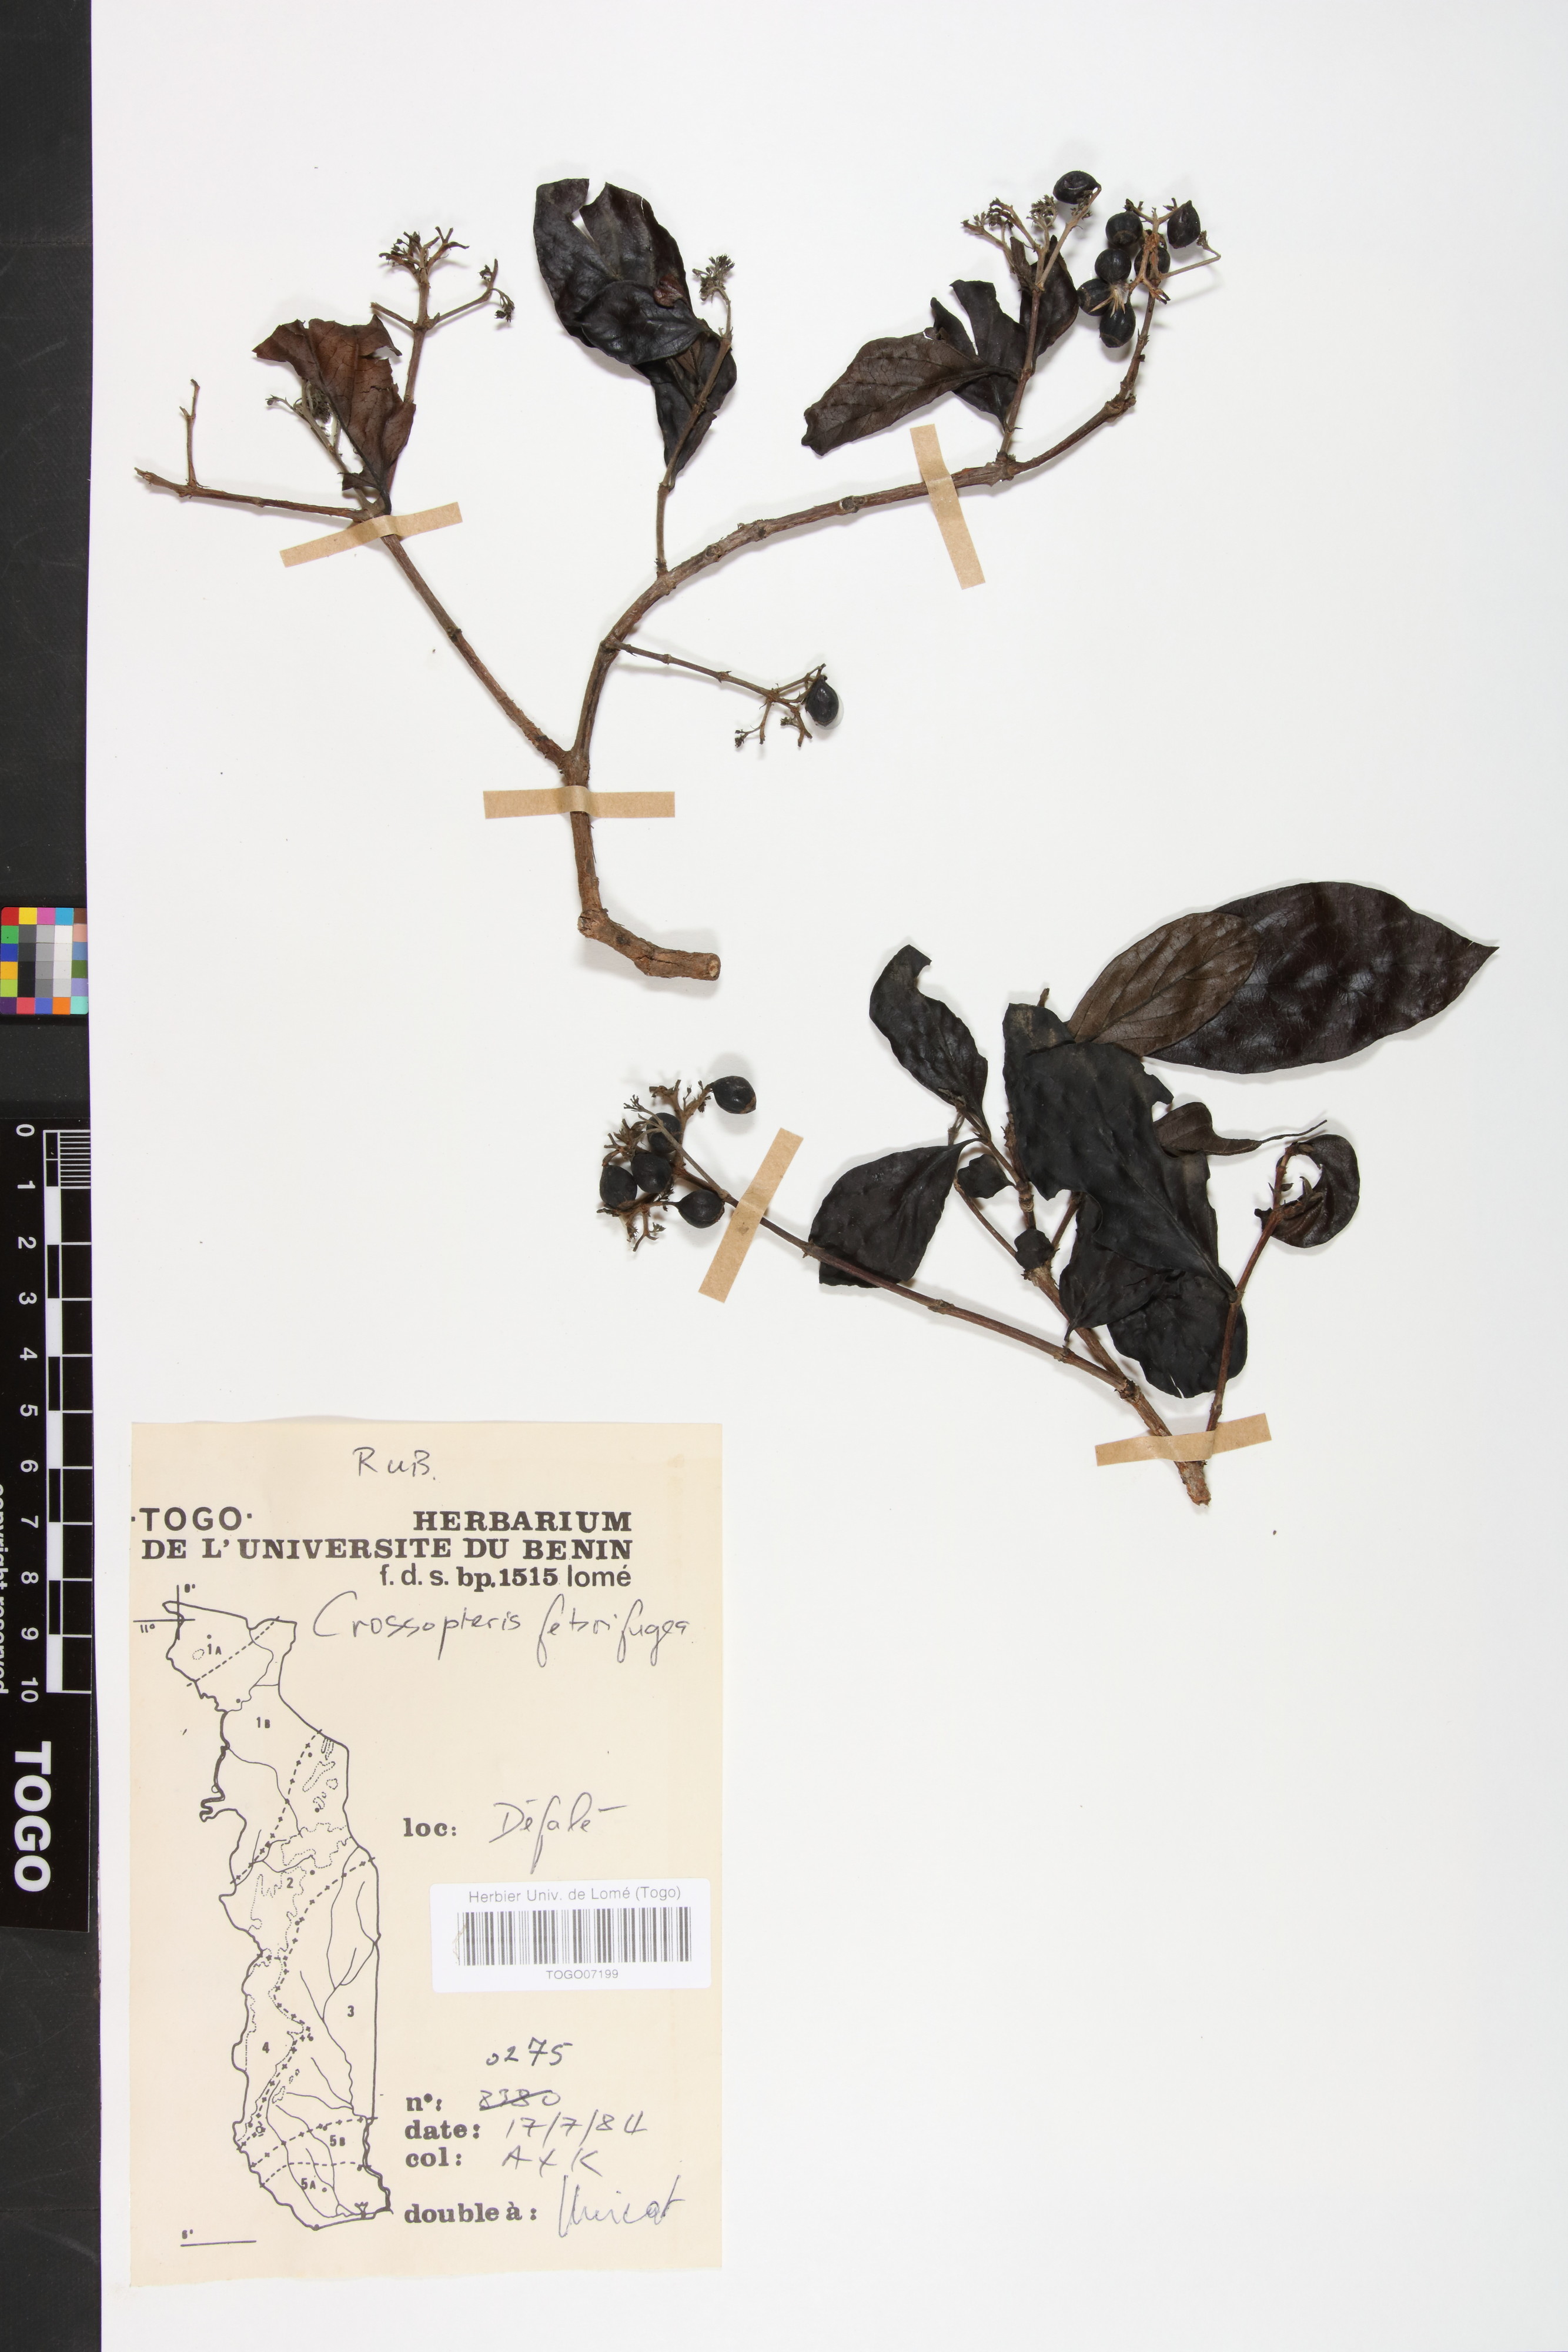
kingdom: Plantae
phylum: Tracheophyta
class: Magnoliopsida
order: Gentianales
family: Rubiaceae
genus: Crossopteryx
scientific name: Crossopteryx febrifuga
